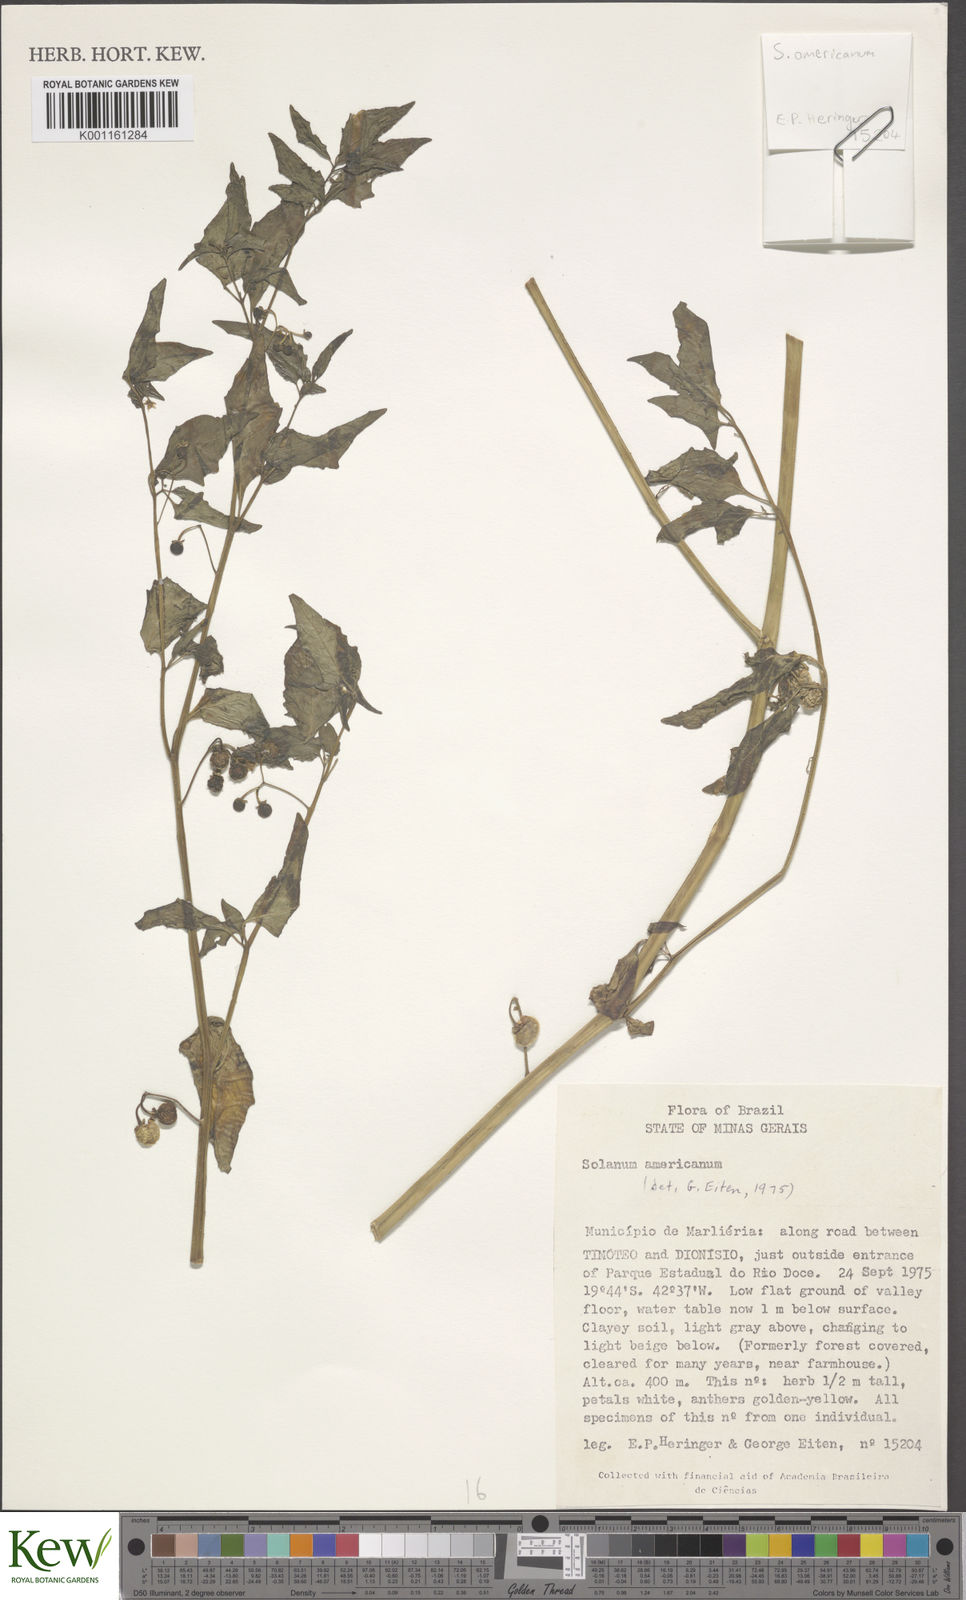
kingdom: Plantae
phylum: Tracheophyta
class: Magnoliopsida
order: Solanales
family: Solanaceae
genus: Solanum
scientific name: Solanum americanum
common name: American black nightshade
